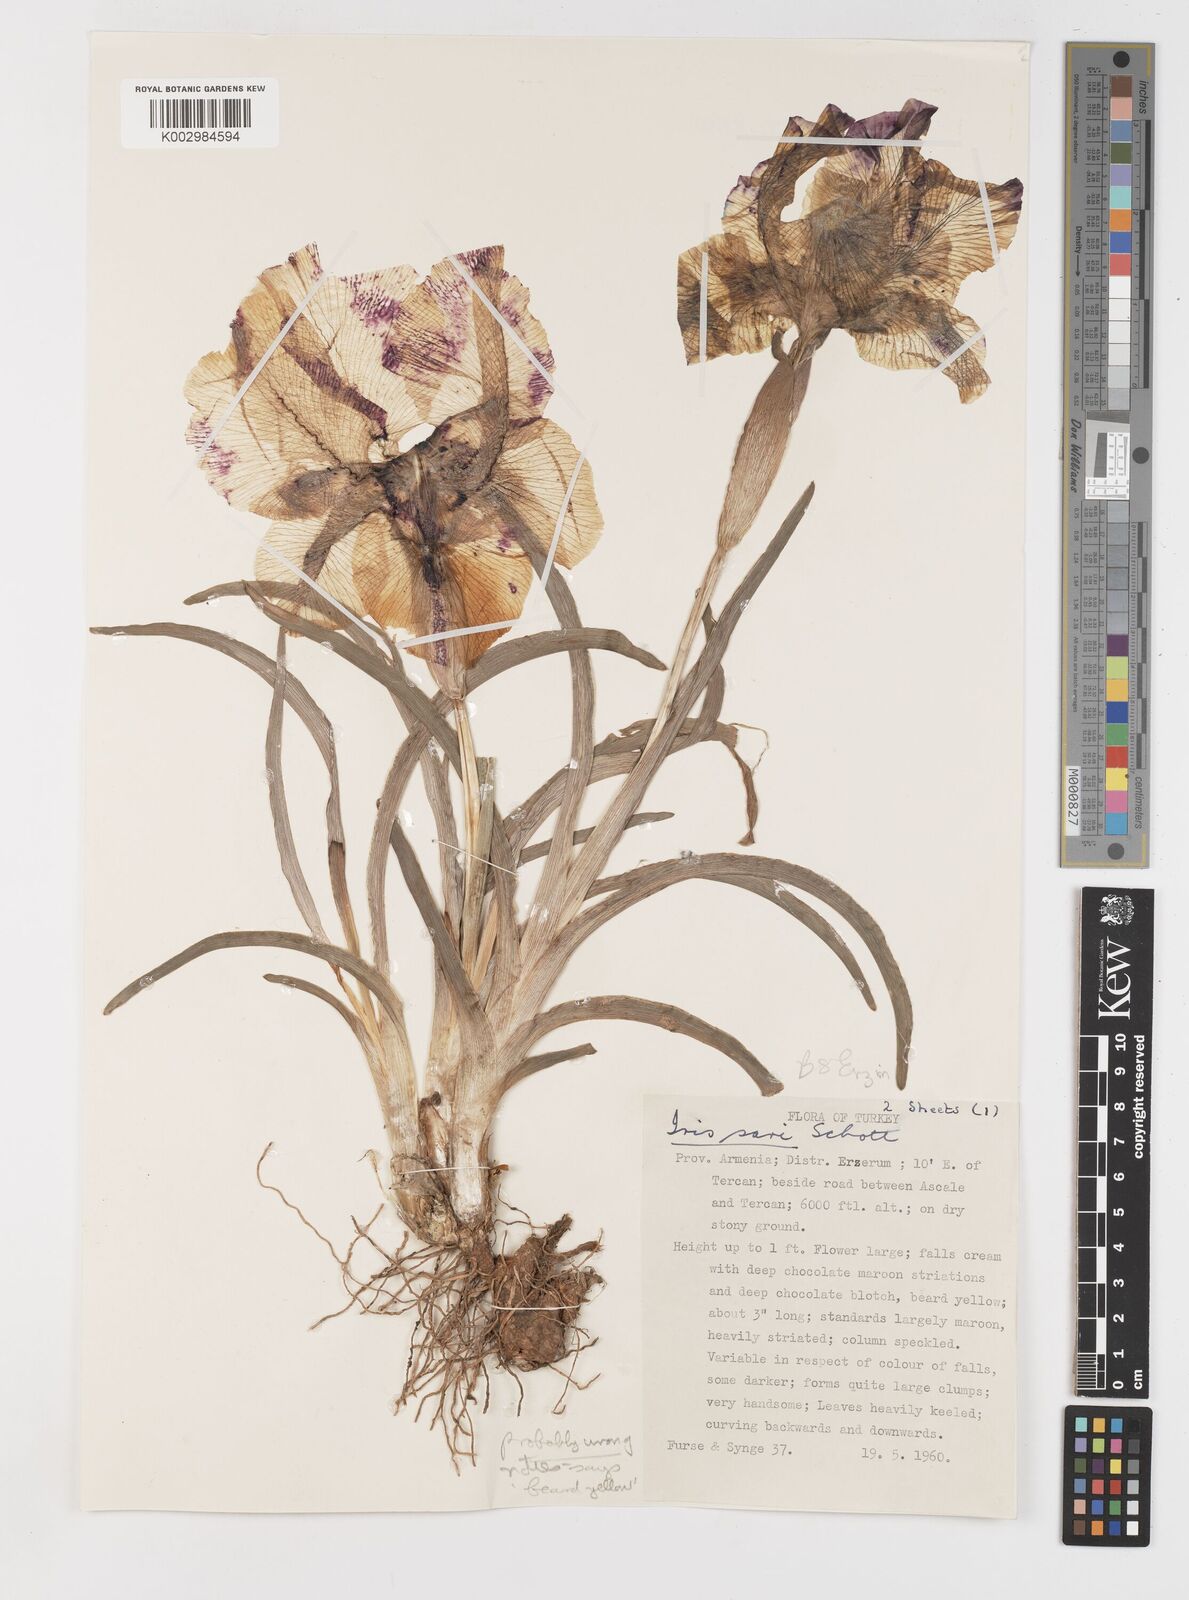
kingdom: Plantae
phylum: Tracheophyta
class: Liliopsida
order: Asparagales
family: Iridaceae
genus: Iris
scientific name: Iris iberica
